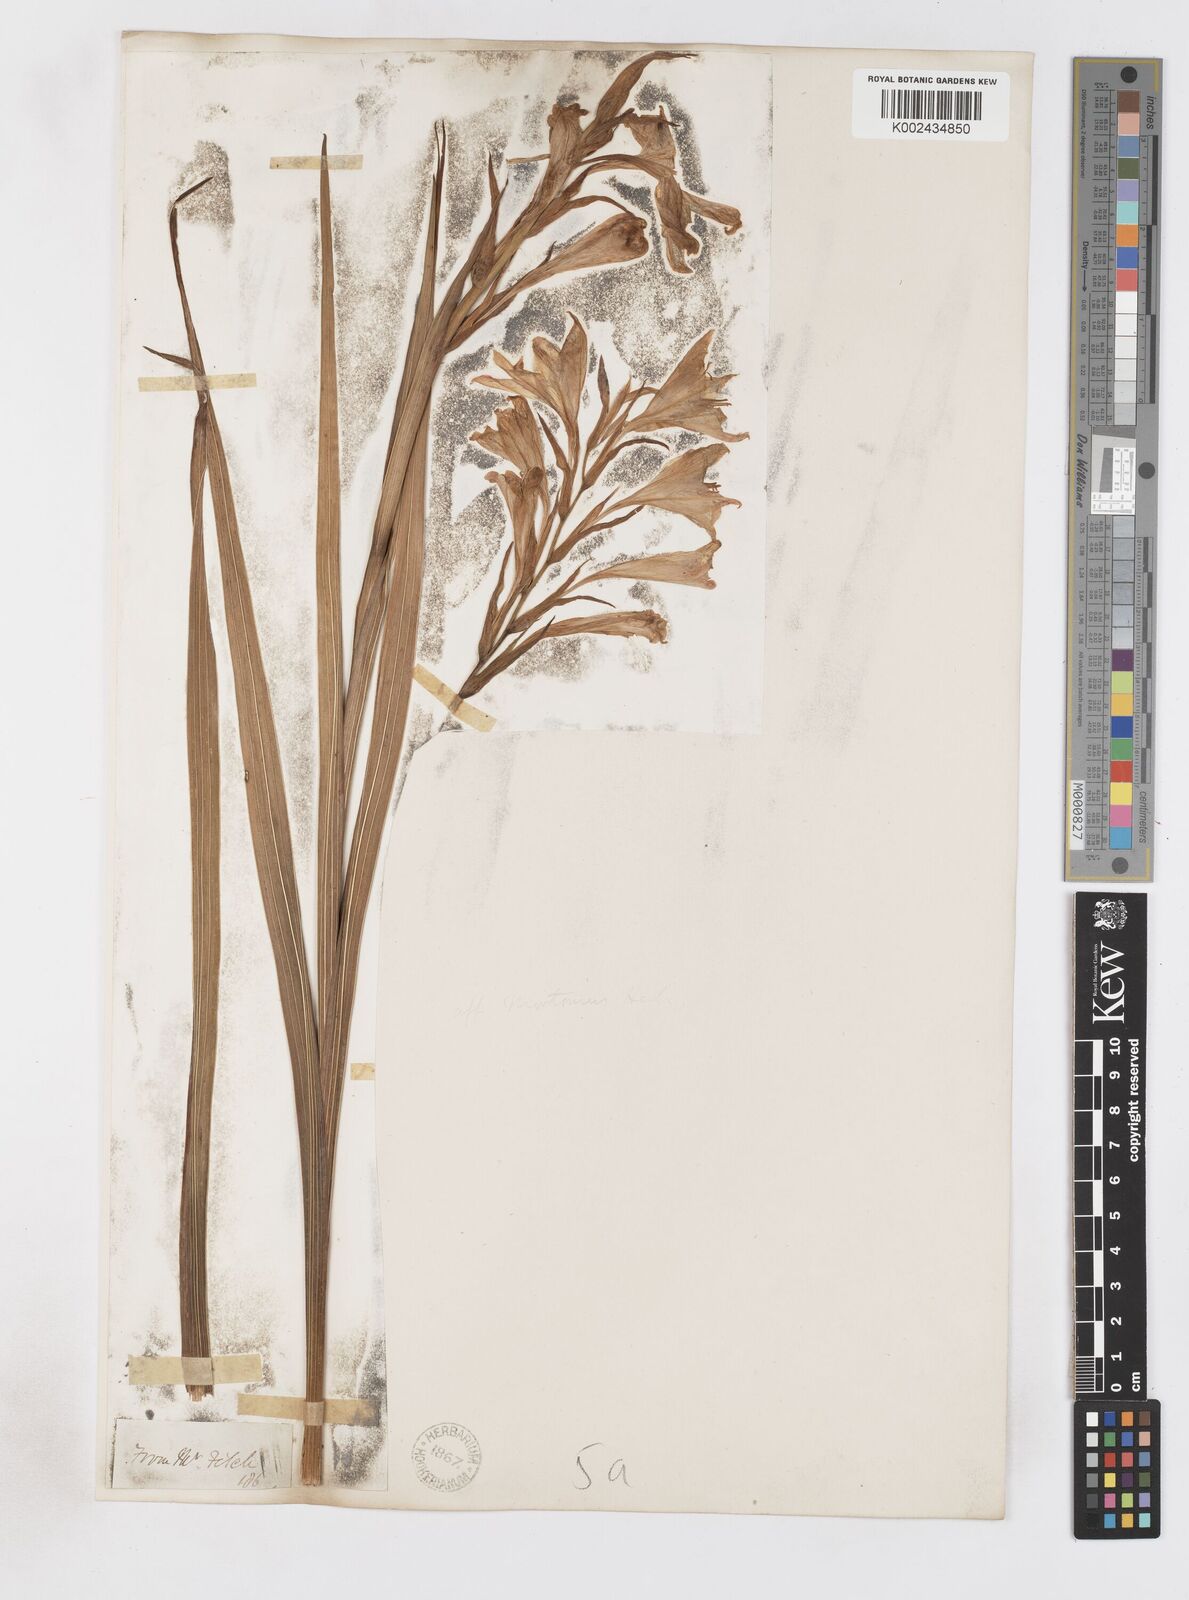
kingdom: Plantae
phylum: Tracheophyta
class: Liliopsida
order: Asparagales
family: Iridaceae
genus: Gladiolus
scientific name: Gladiolus oppositiflorus
